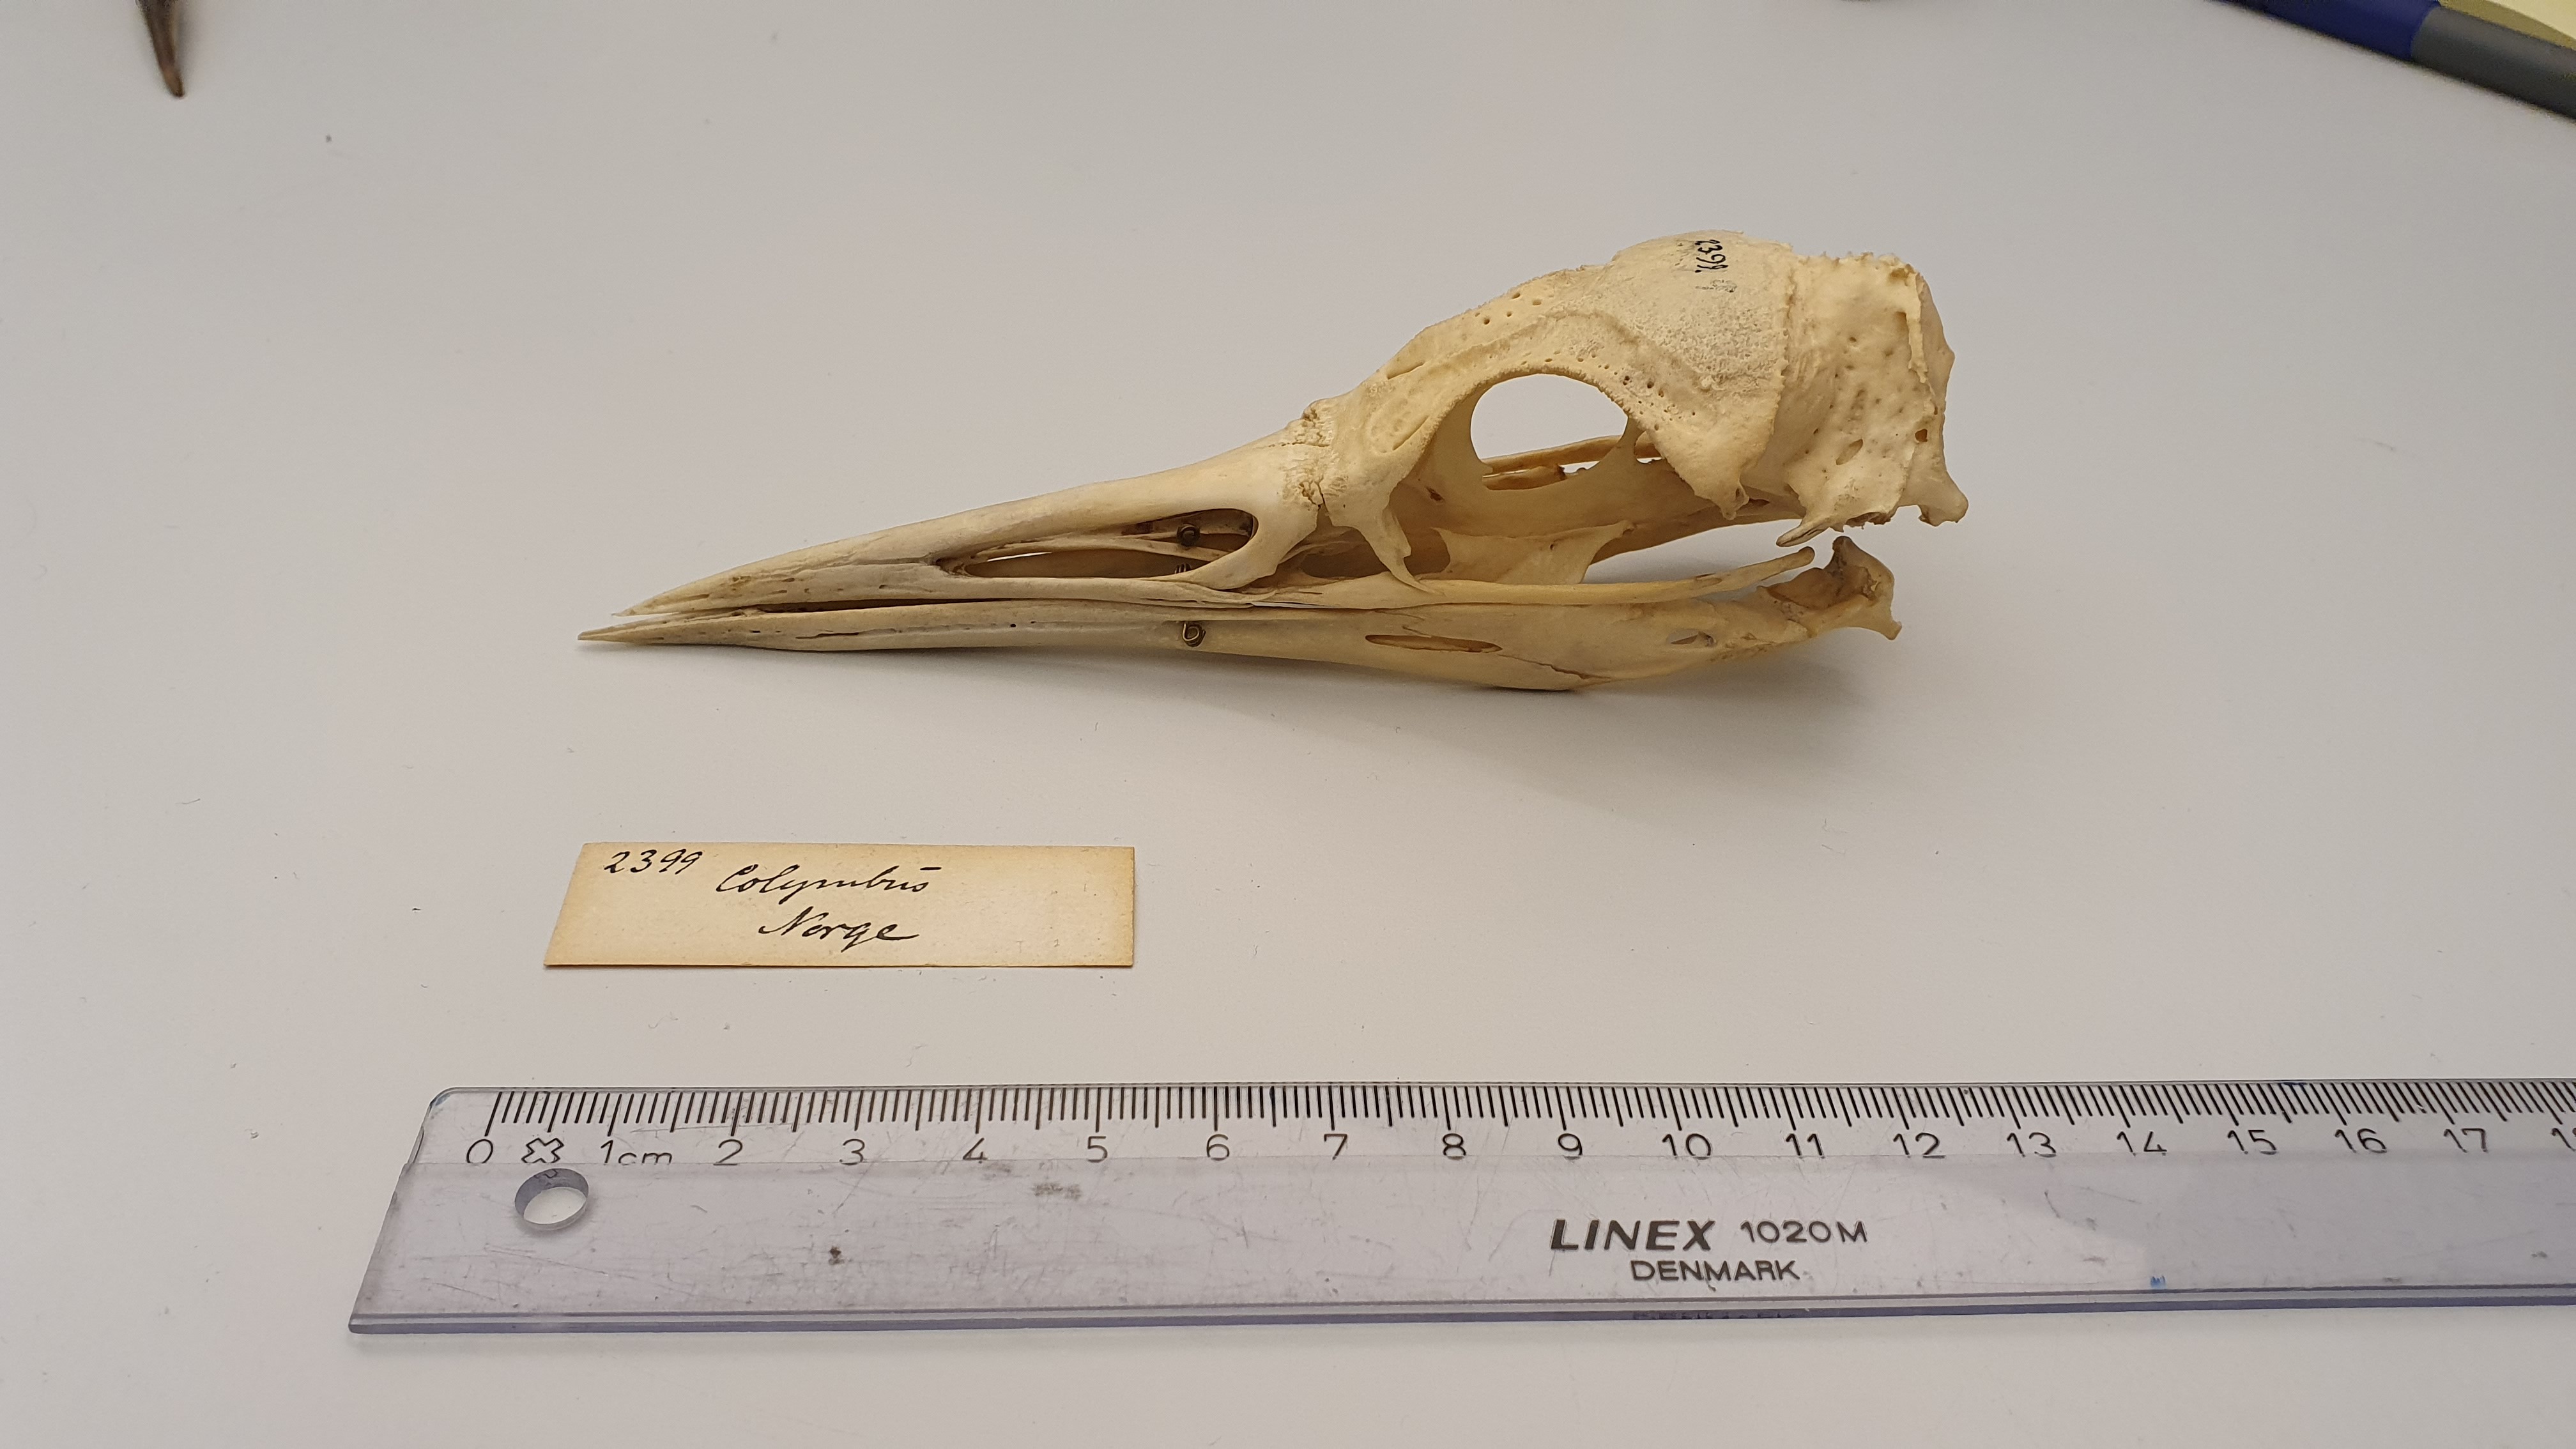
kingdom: Animalia
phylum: Chordata
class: Aves
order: Gaviiformes
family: Gaviidae
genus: Gavia
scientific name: Gavia arctica
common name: Black-throated loon
